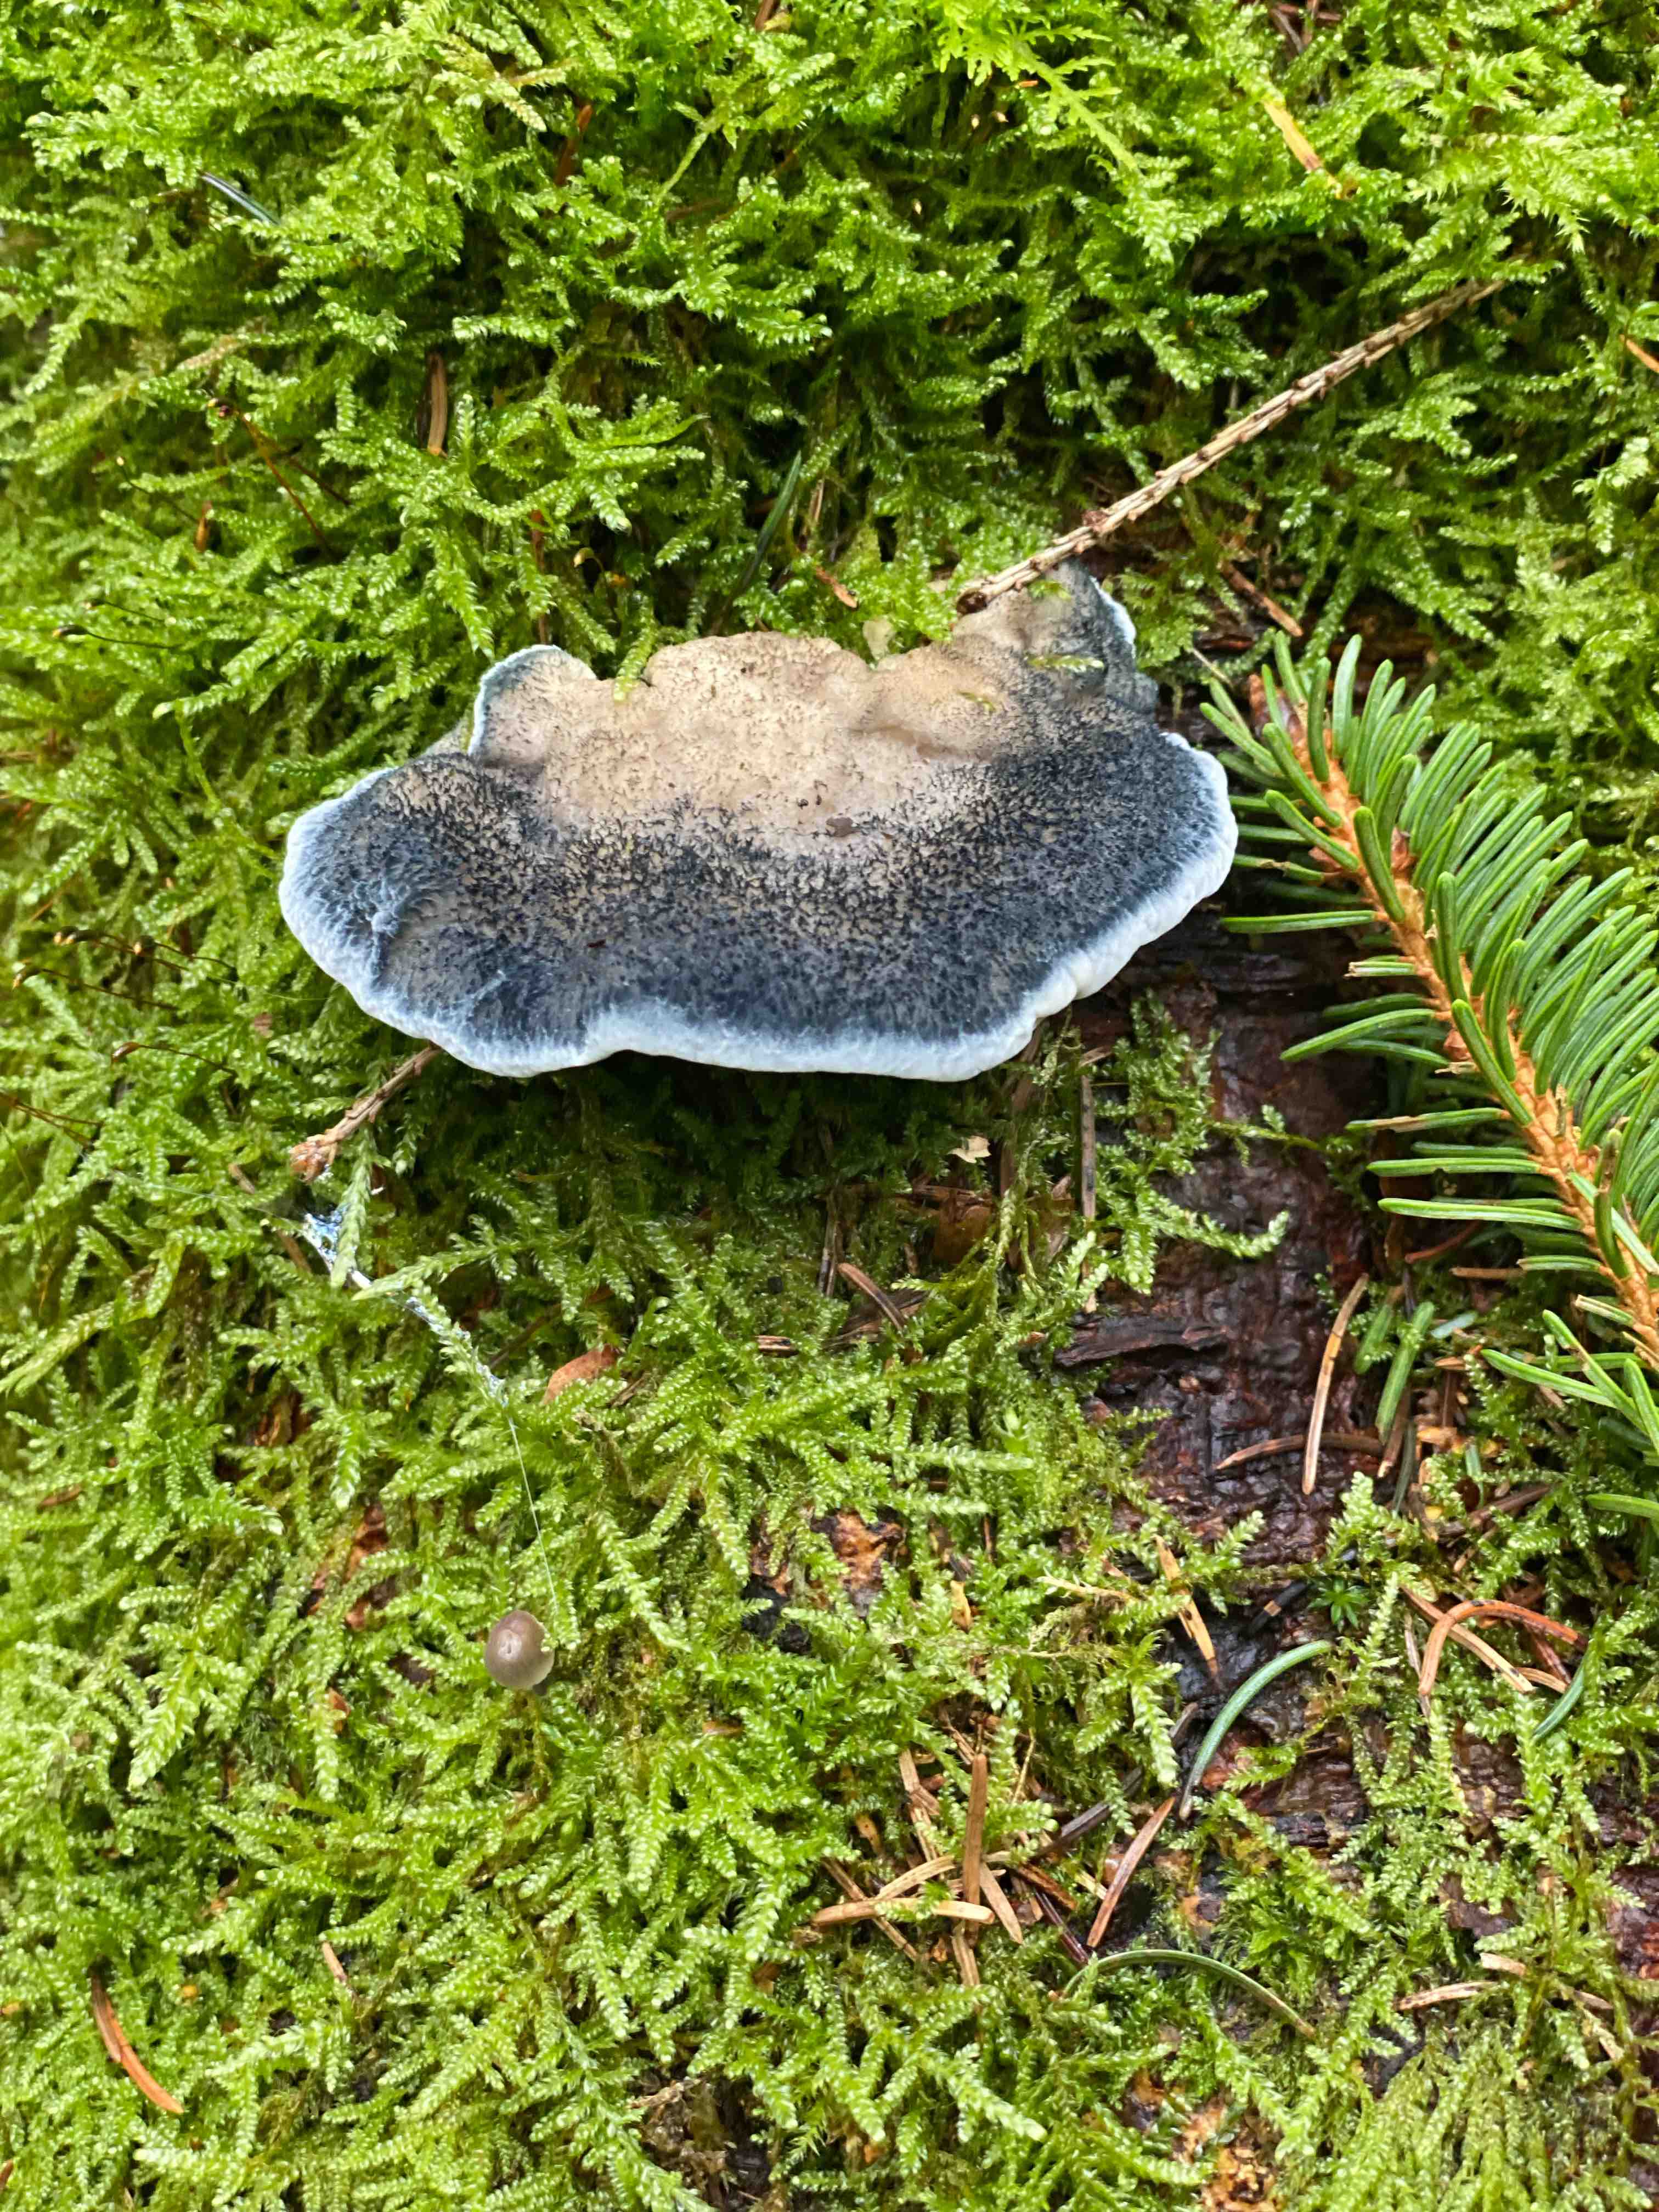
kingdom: Fungi
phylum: Basidiomycota
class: Agaricomycetes
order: Polyporales
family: Polyporaceae
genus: Cyanosporus
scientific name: Cyanosporus caesius
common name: blålig kødporesvamp
